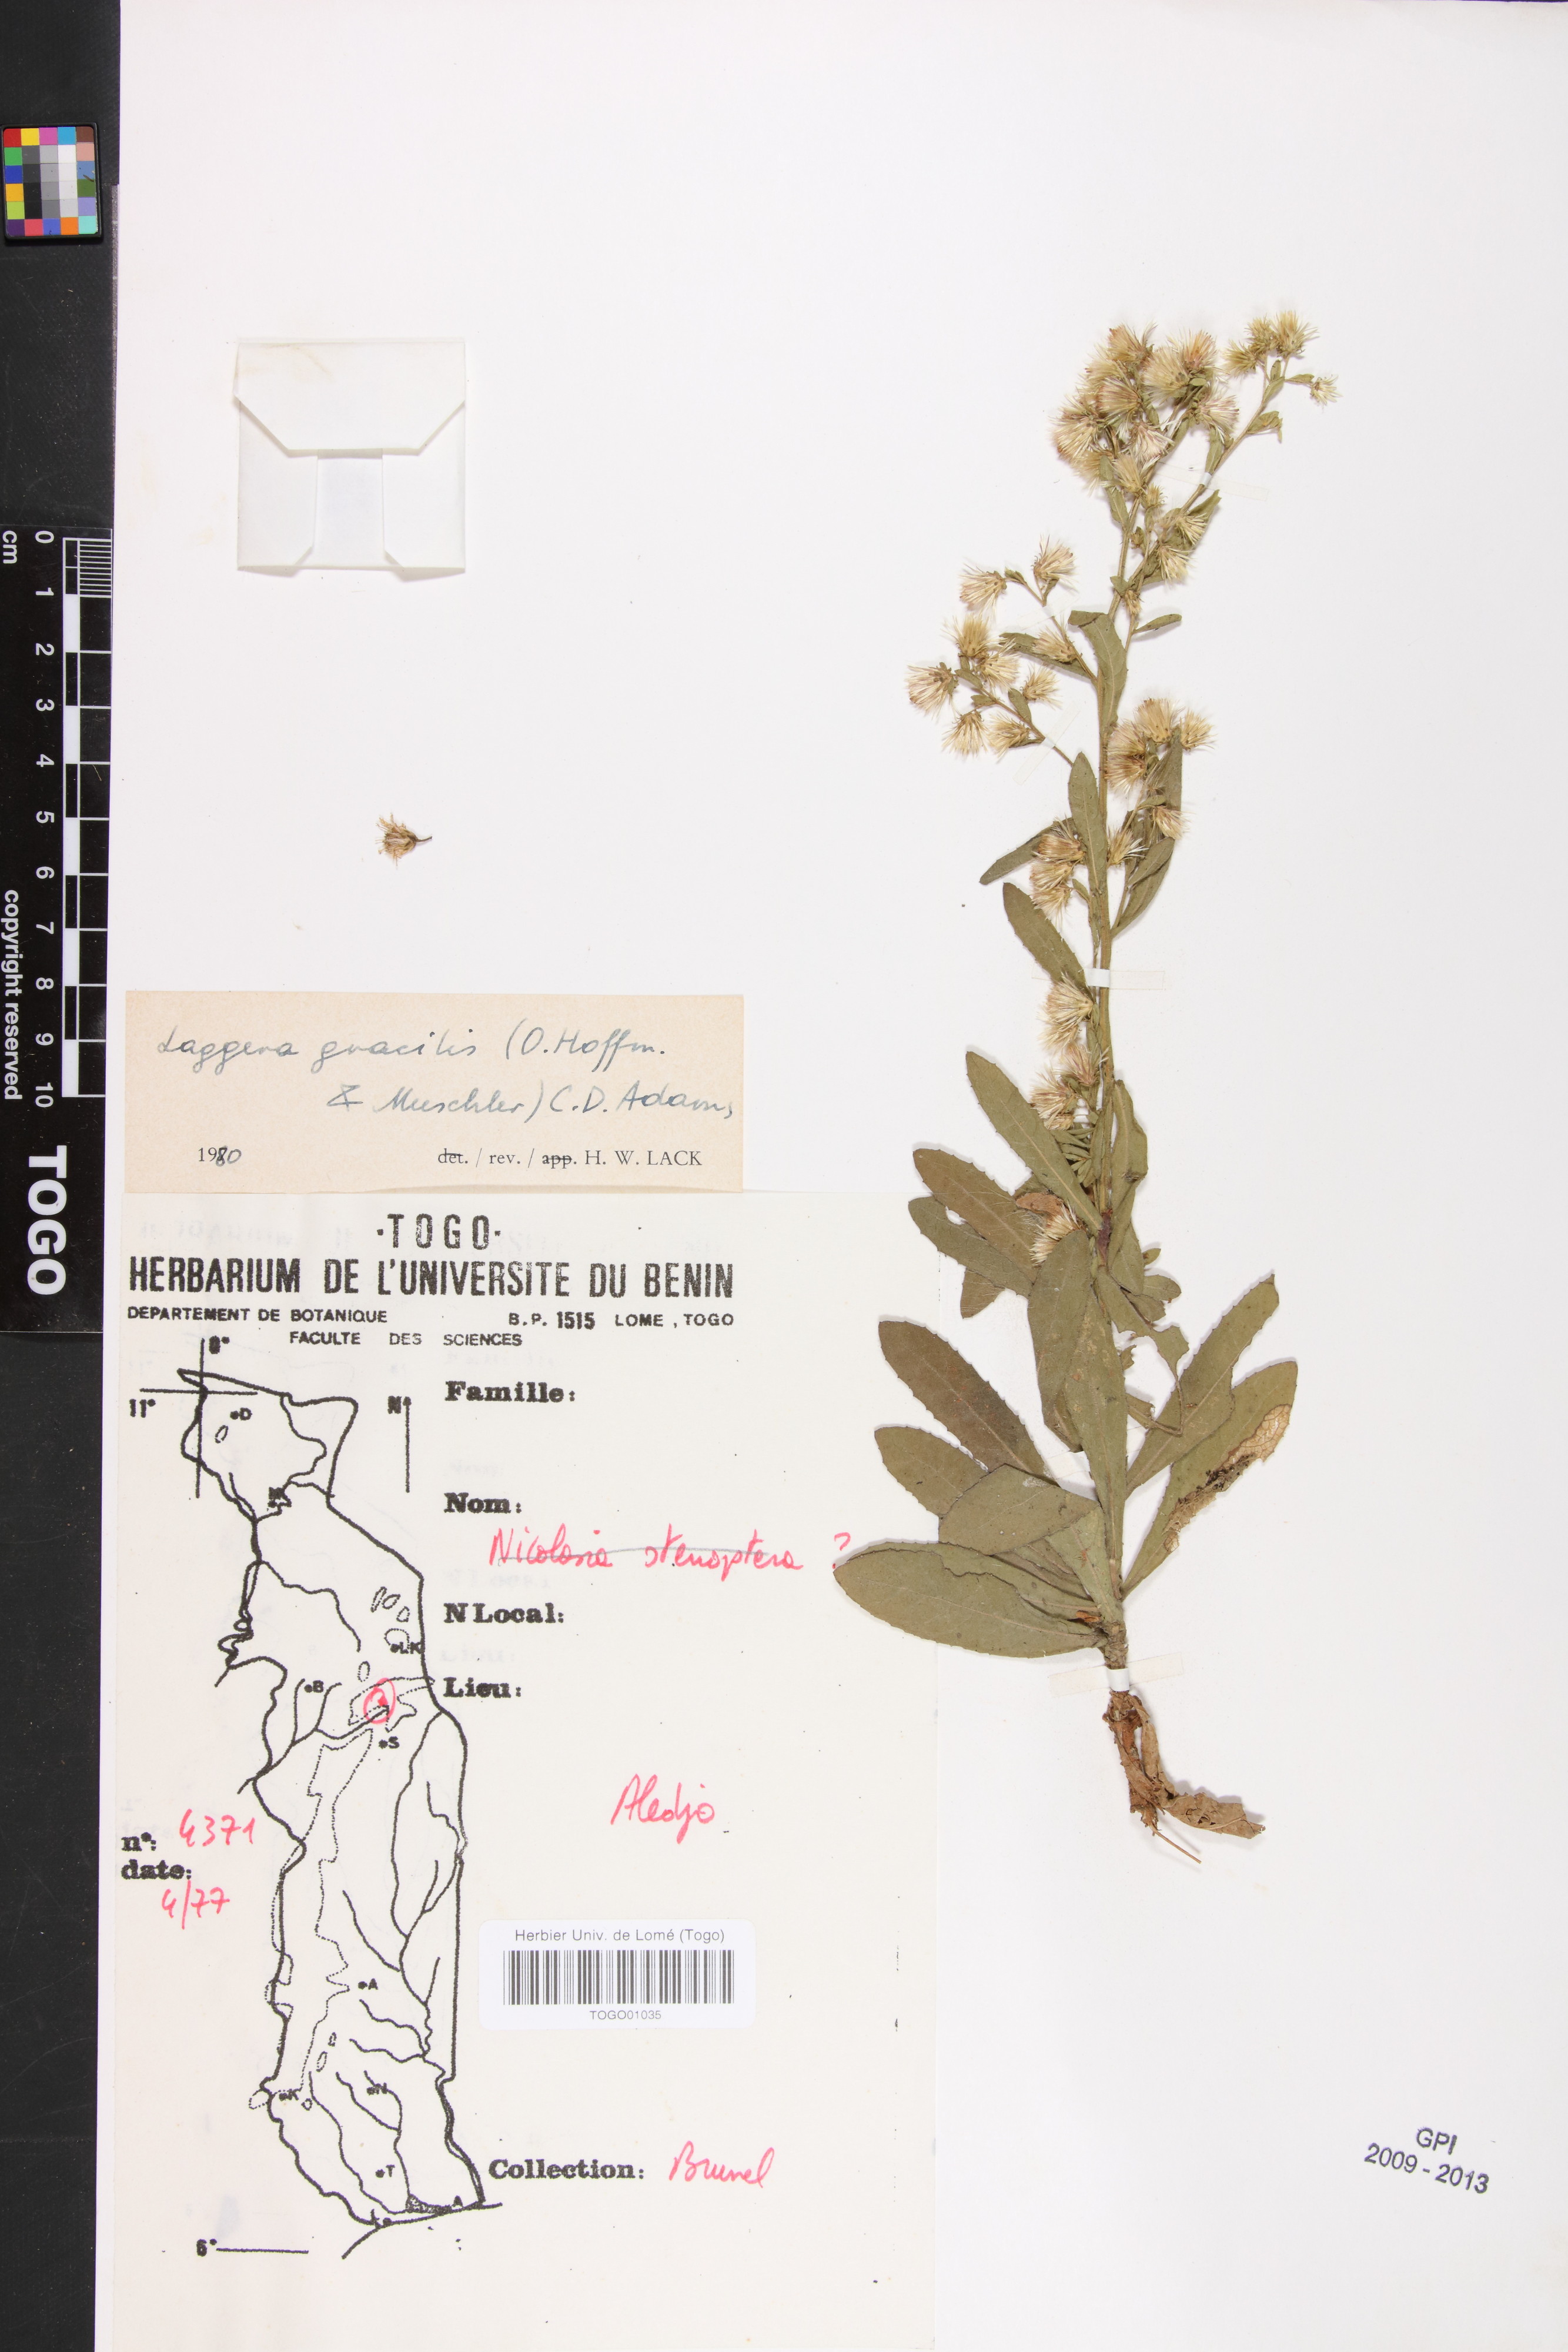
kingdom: Plantae
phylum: Tracheophyta
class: Magnoliopsida
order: Asterales
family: Asteraceae
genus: Laggera
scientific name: Laggera gracilis
